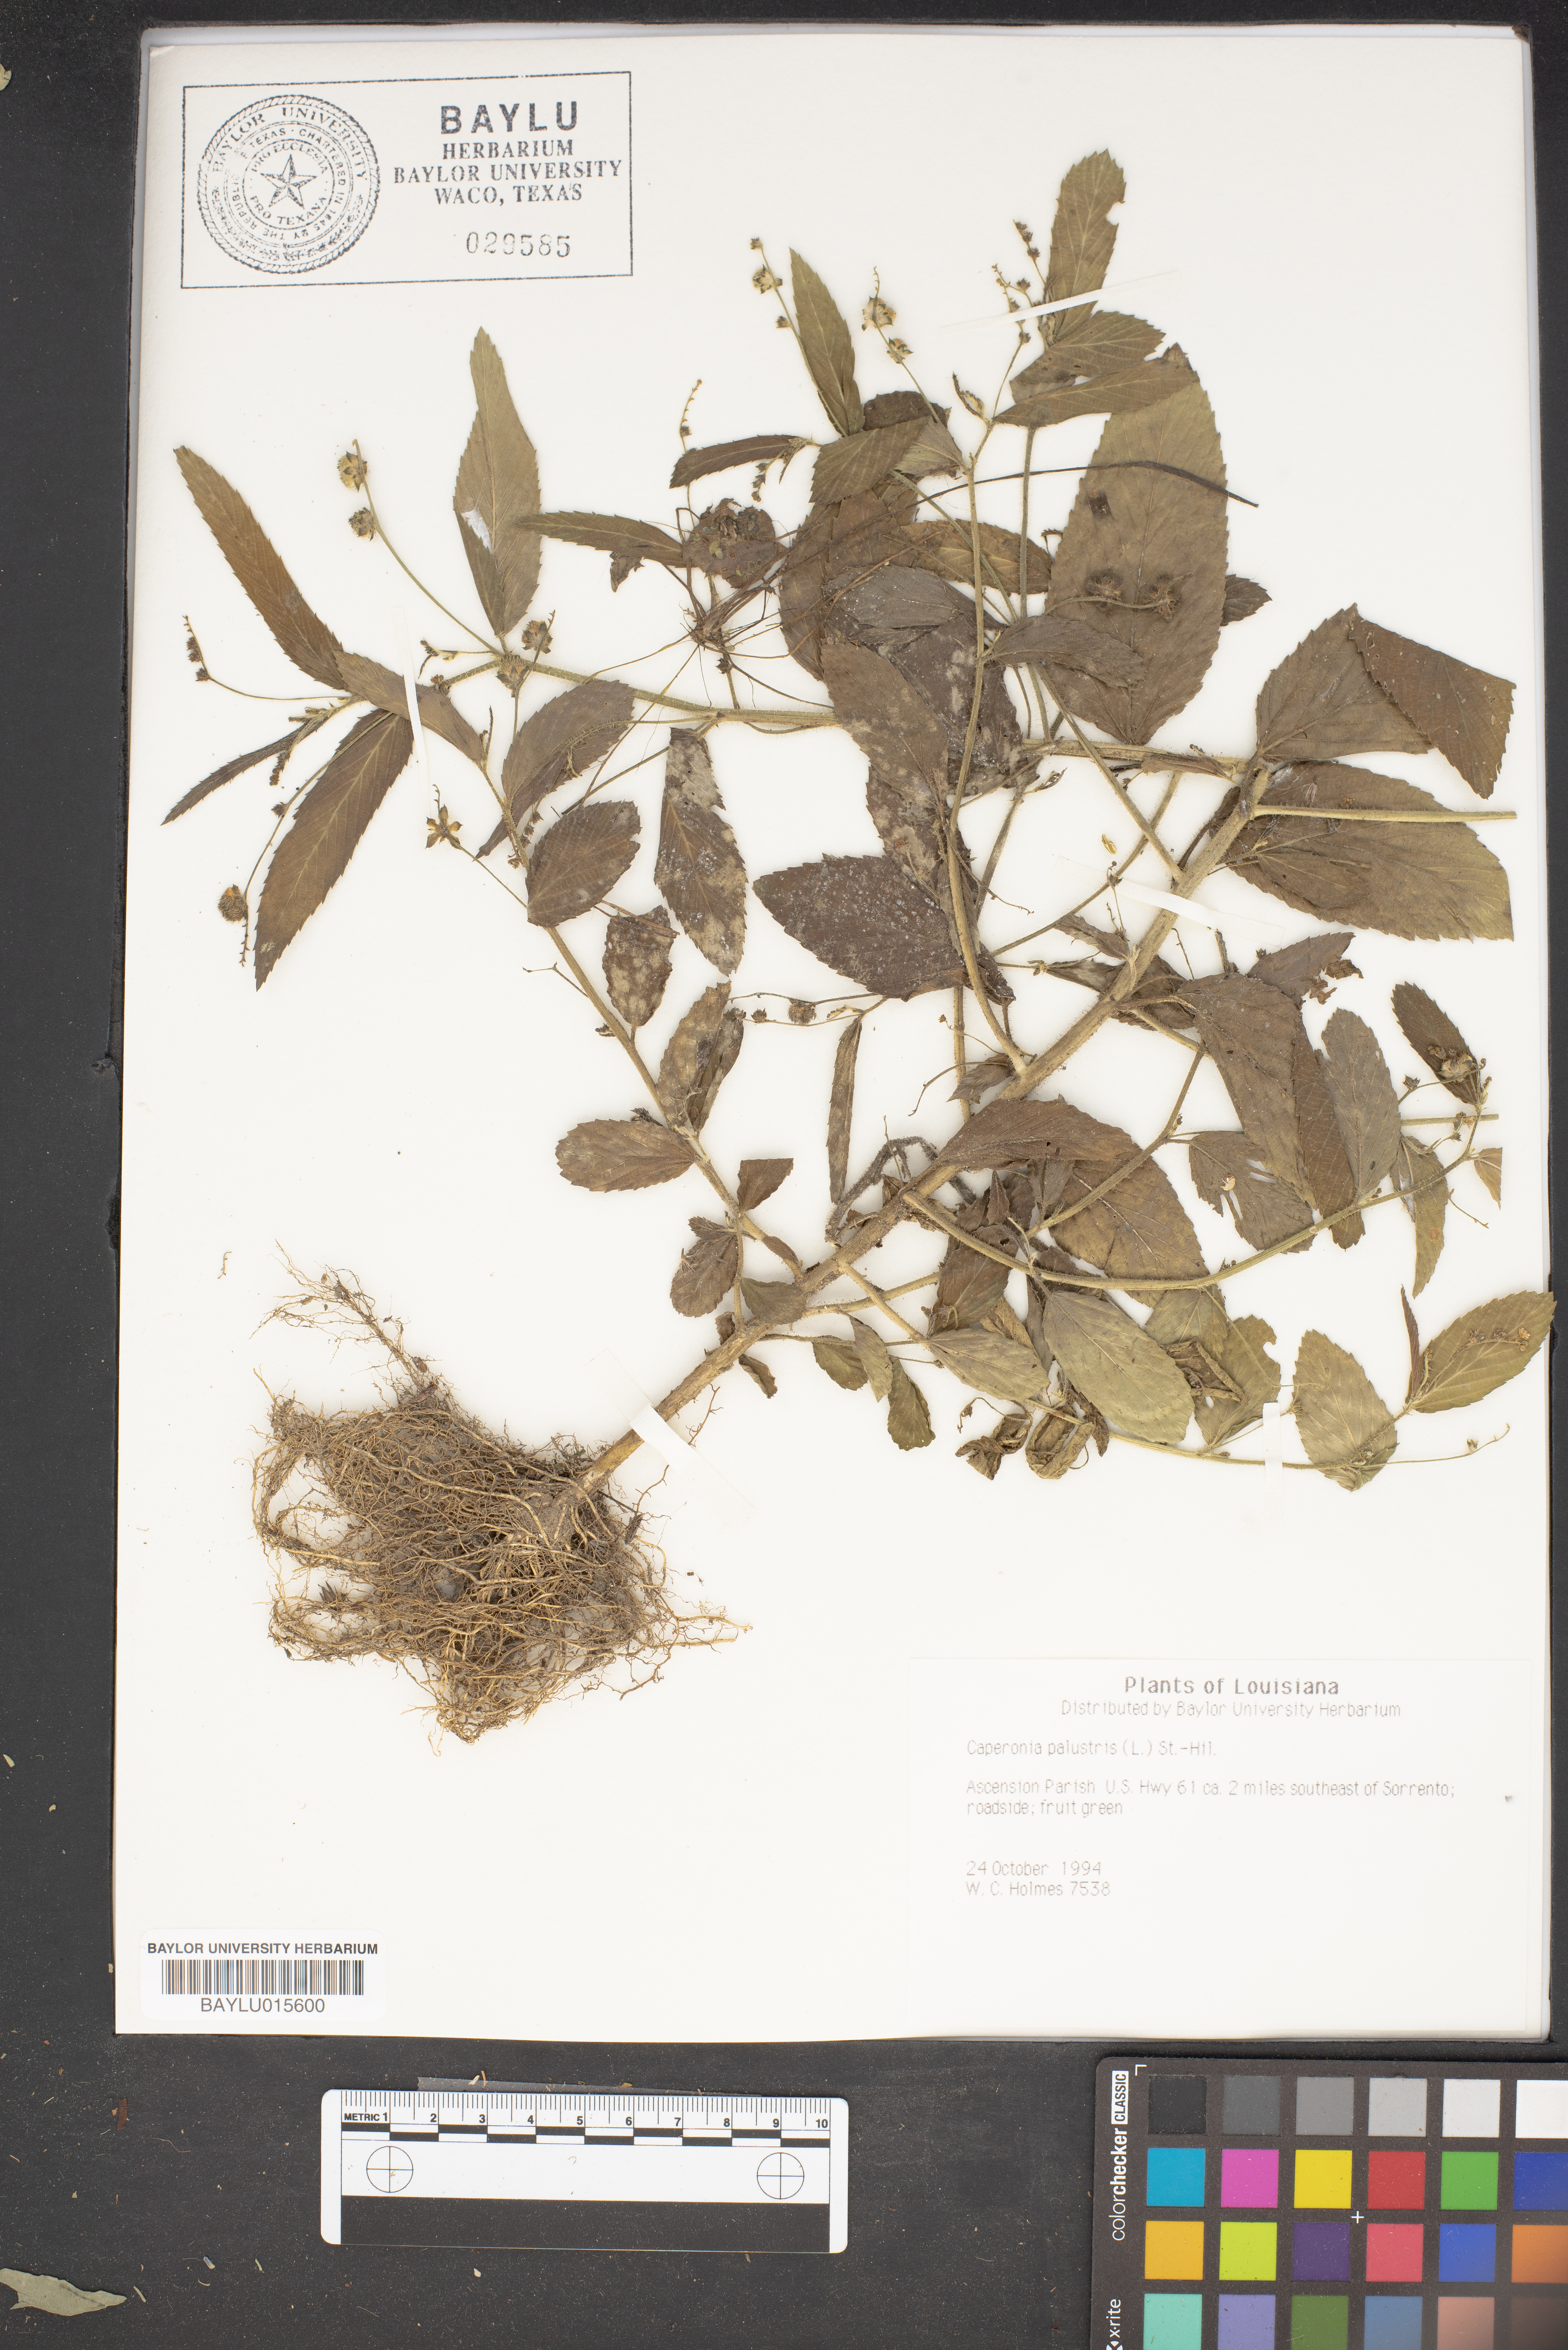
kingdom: Plantae
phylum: Tracheophyta
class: Magnoliopsida
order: Malpighiales
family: Euphorbiaceae
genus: Caperonia
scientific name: Caperonia palustris
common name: Sacatrapo
